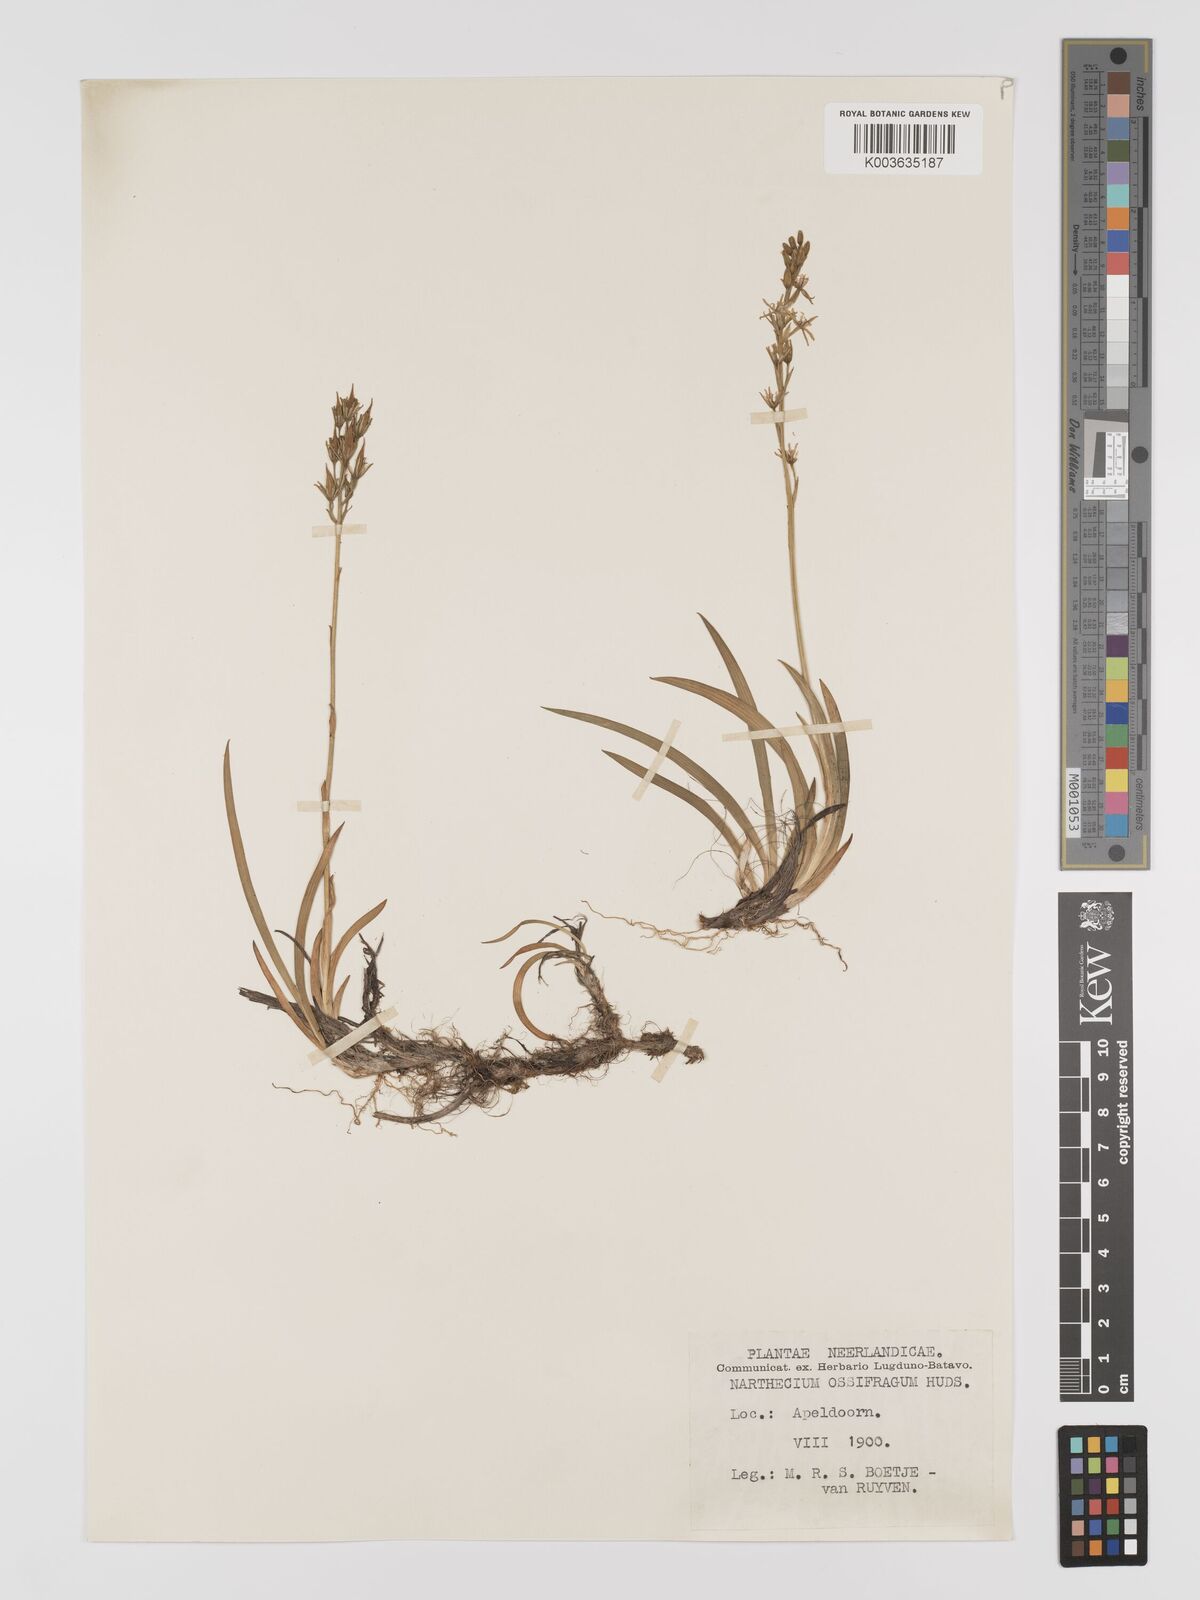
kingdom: Plantae
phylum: Tracheophyta
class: Liliopsida
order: Dioscoreales
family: Nartheciaceae
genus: Narthecium
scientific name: Narthecium
